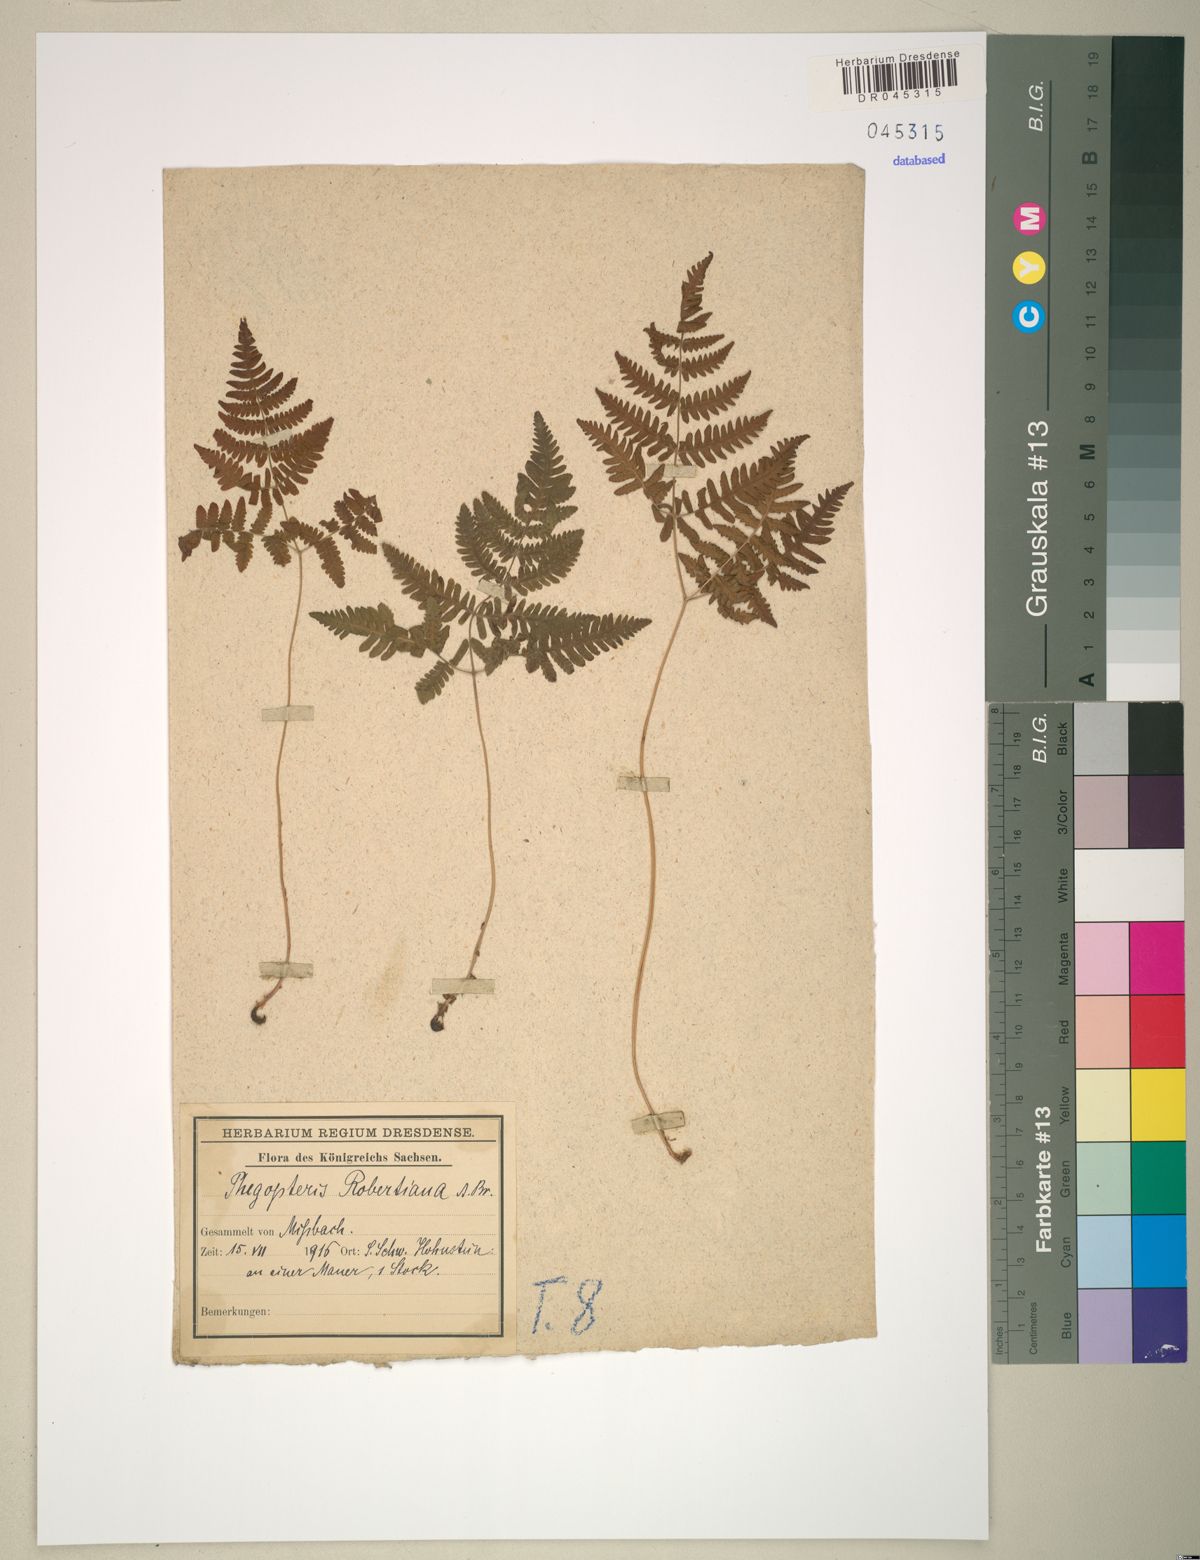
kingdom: Plantae
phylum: Tracheophyta
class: Polypodiopsida
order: Polypodiales
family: Cystopteridaceae
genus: Gymnocarpium
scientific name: Gymnocarpium robertianum
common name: Limestone fern
